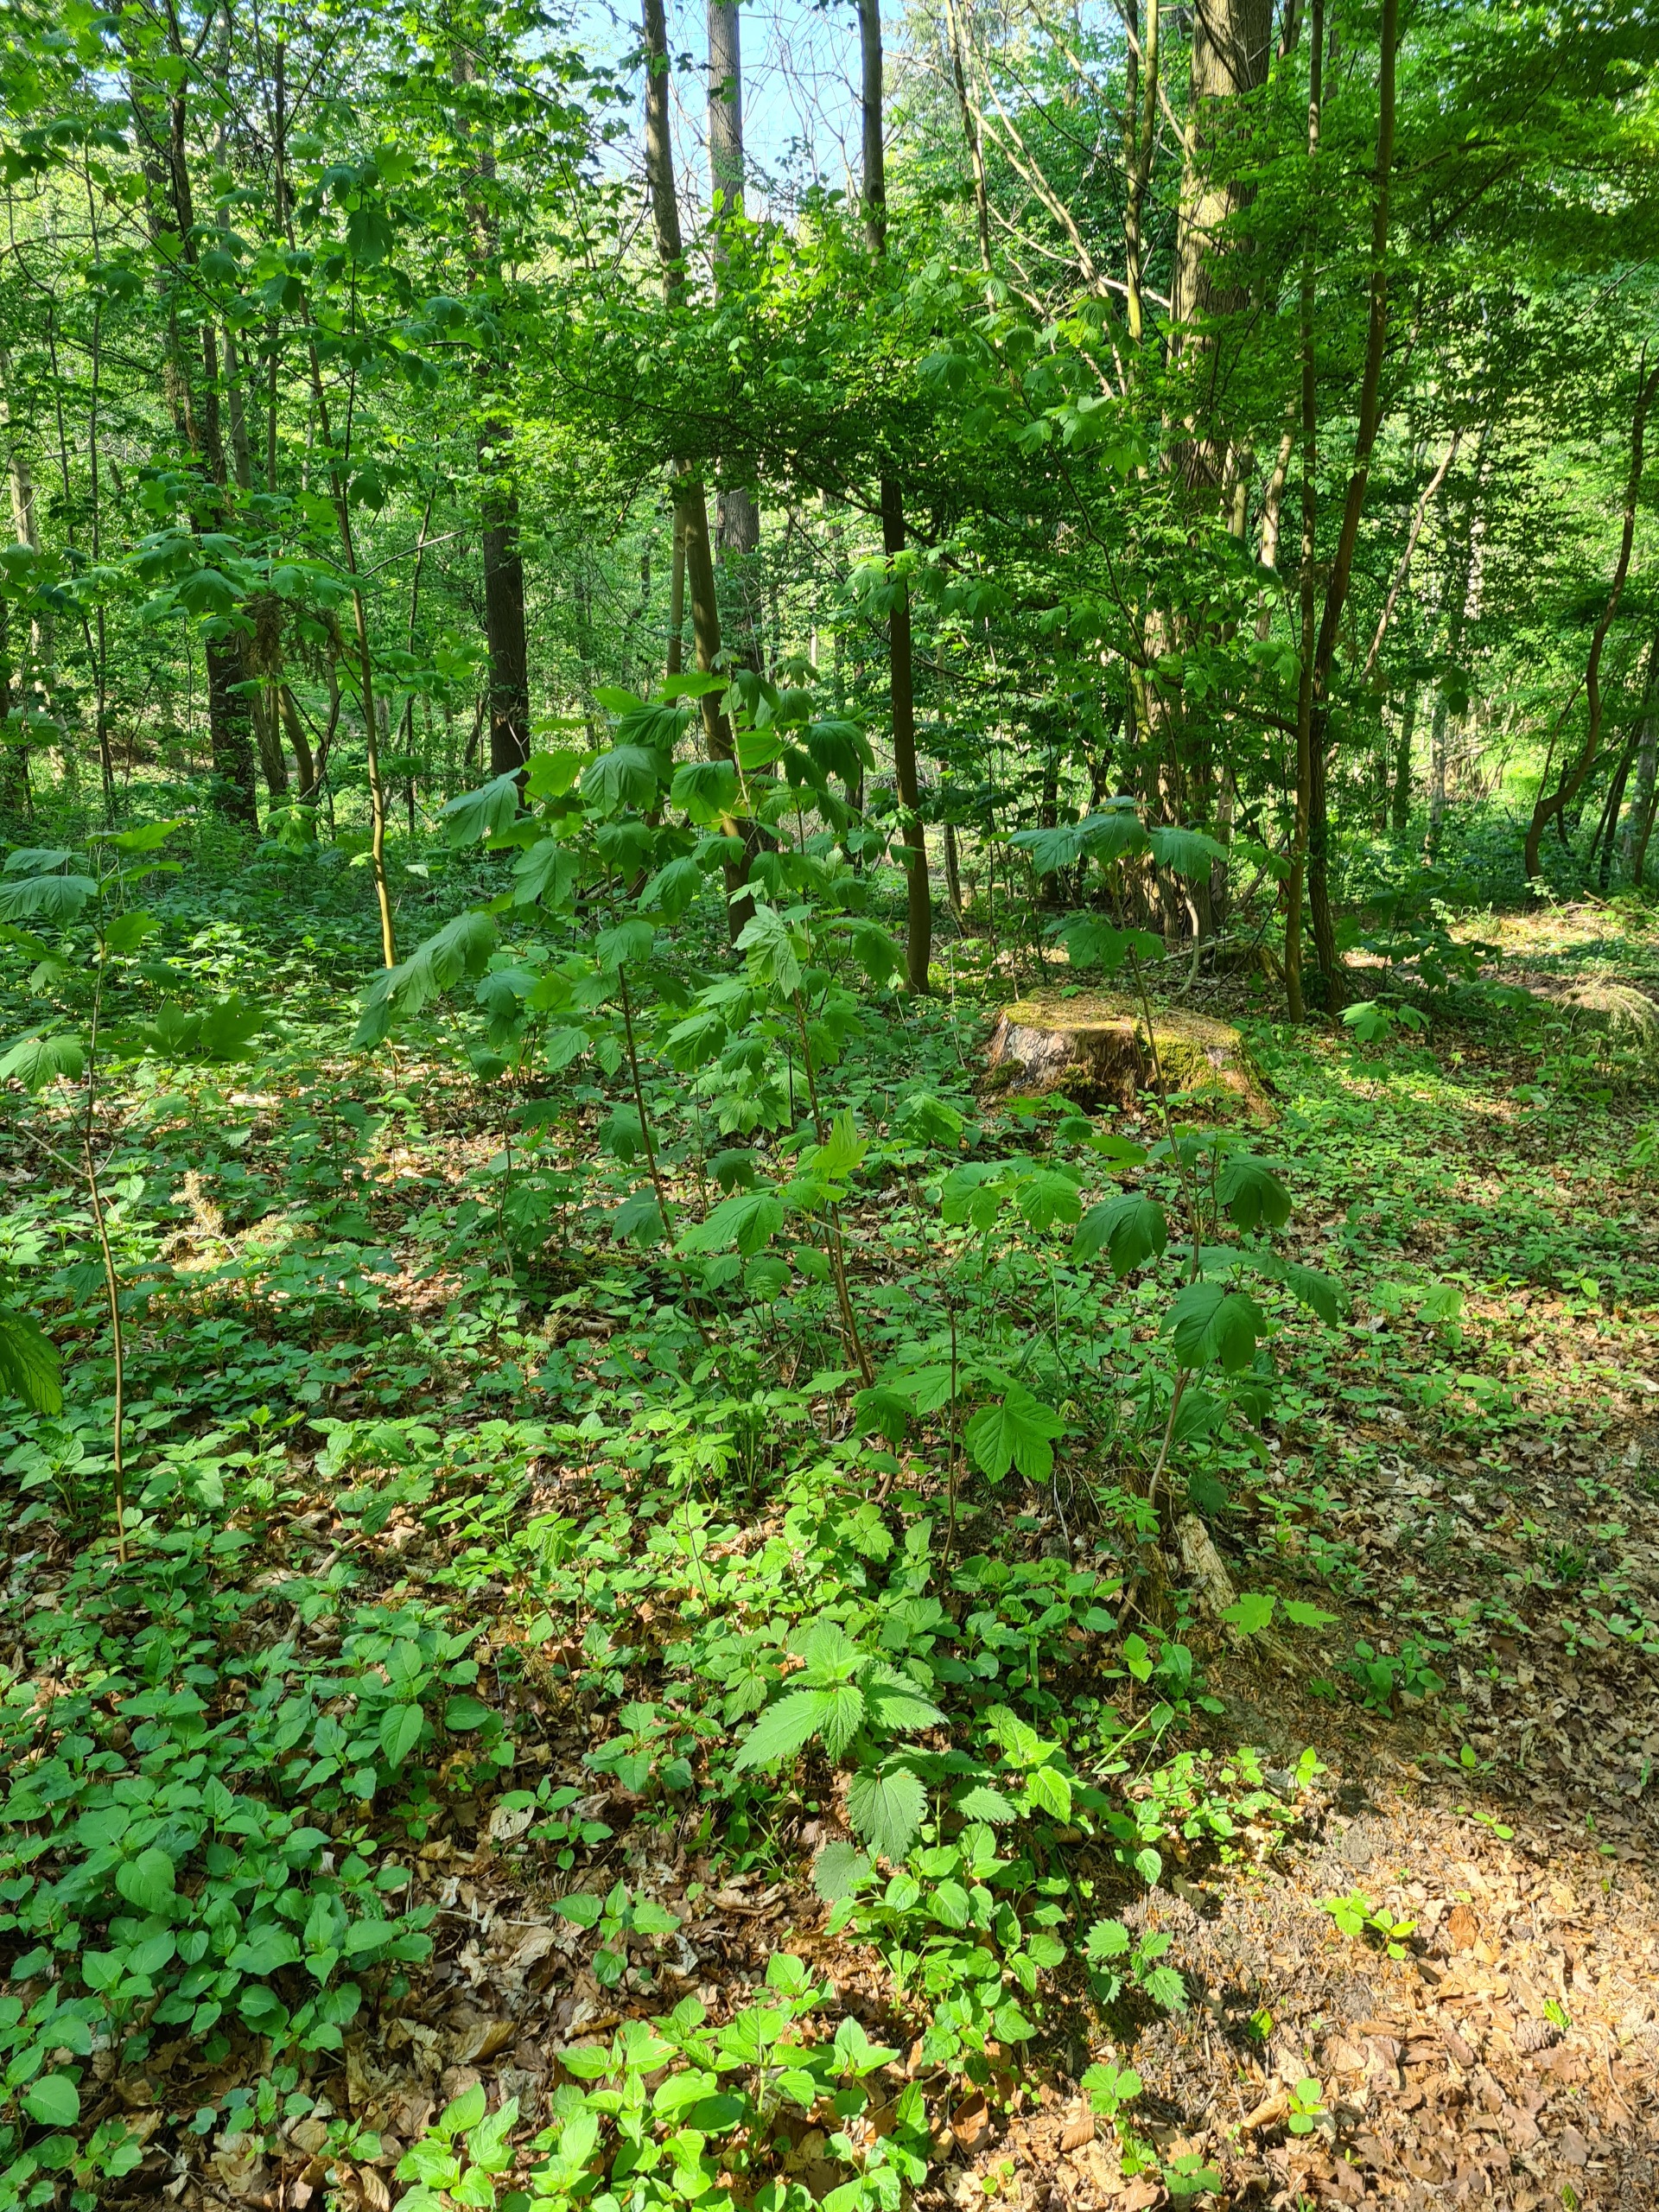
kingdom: Plantae
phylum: Tracheophyta
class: Magnoliopsida
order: Sapindales
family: Sapindaceae
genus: Acer
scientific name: Acer pseudoplatanus
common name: Ahorn
